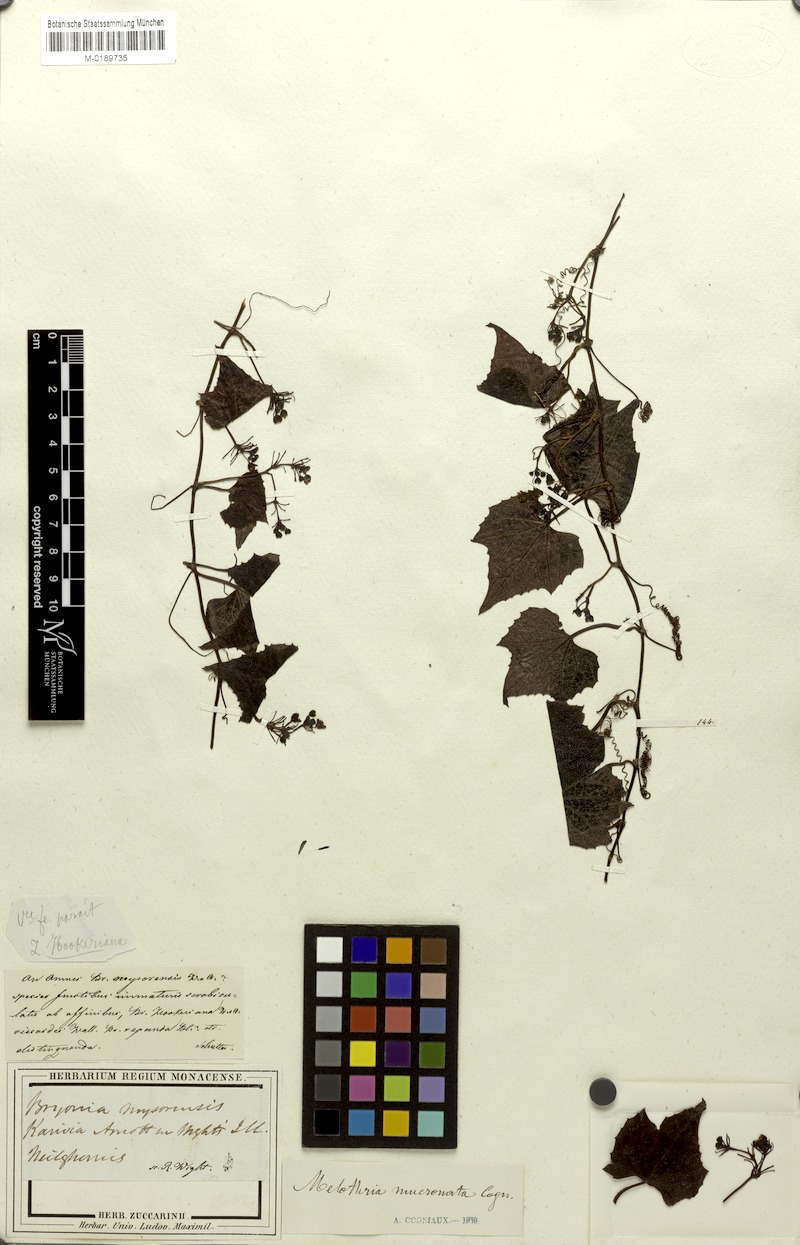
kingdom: Plantae
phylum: Tracheophyta
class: Magnoliopsida
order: Cucurbitales
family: Cucurbitaceae
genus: Zehneria
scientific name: Zehneria mucronata
